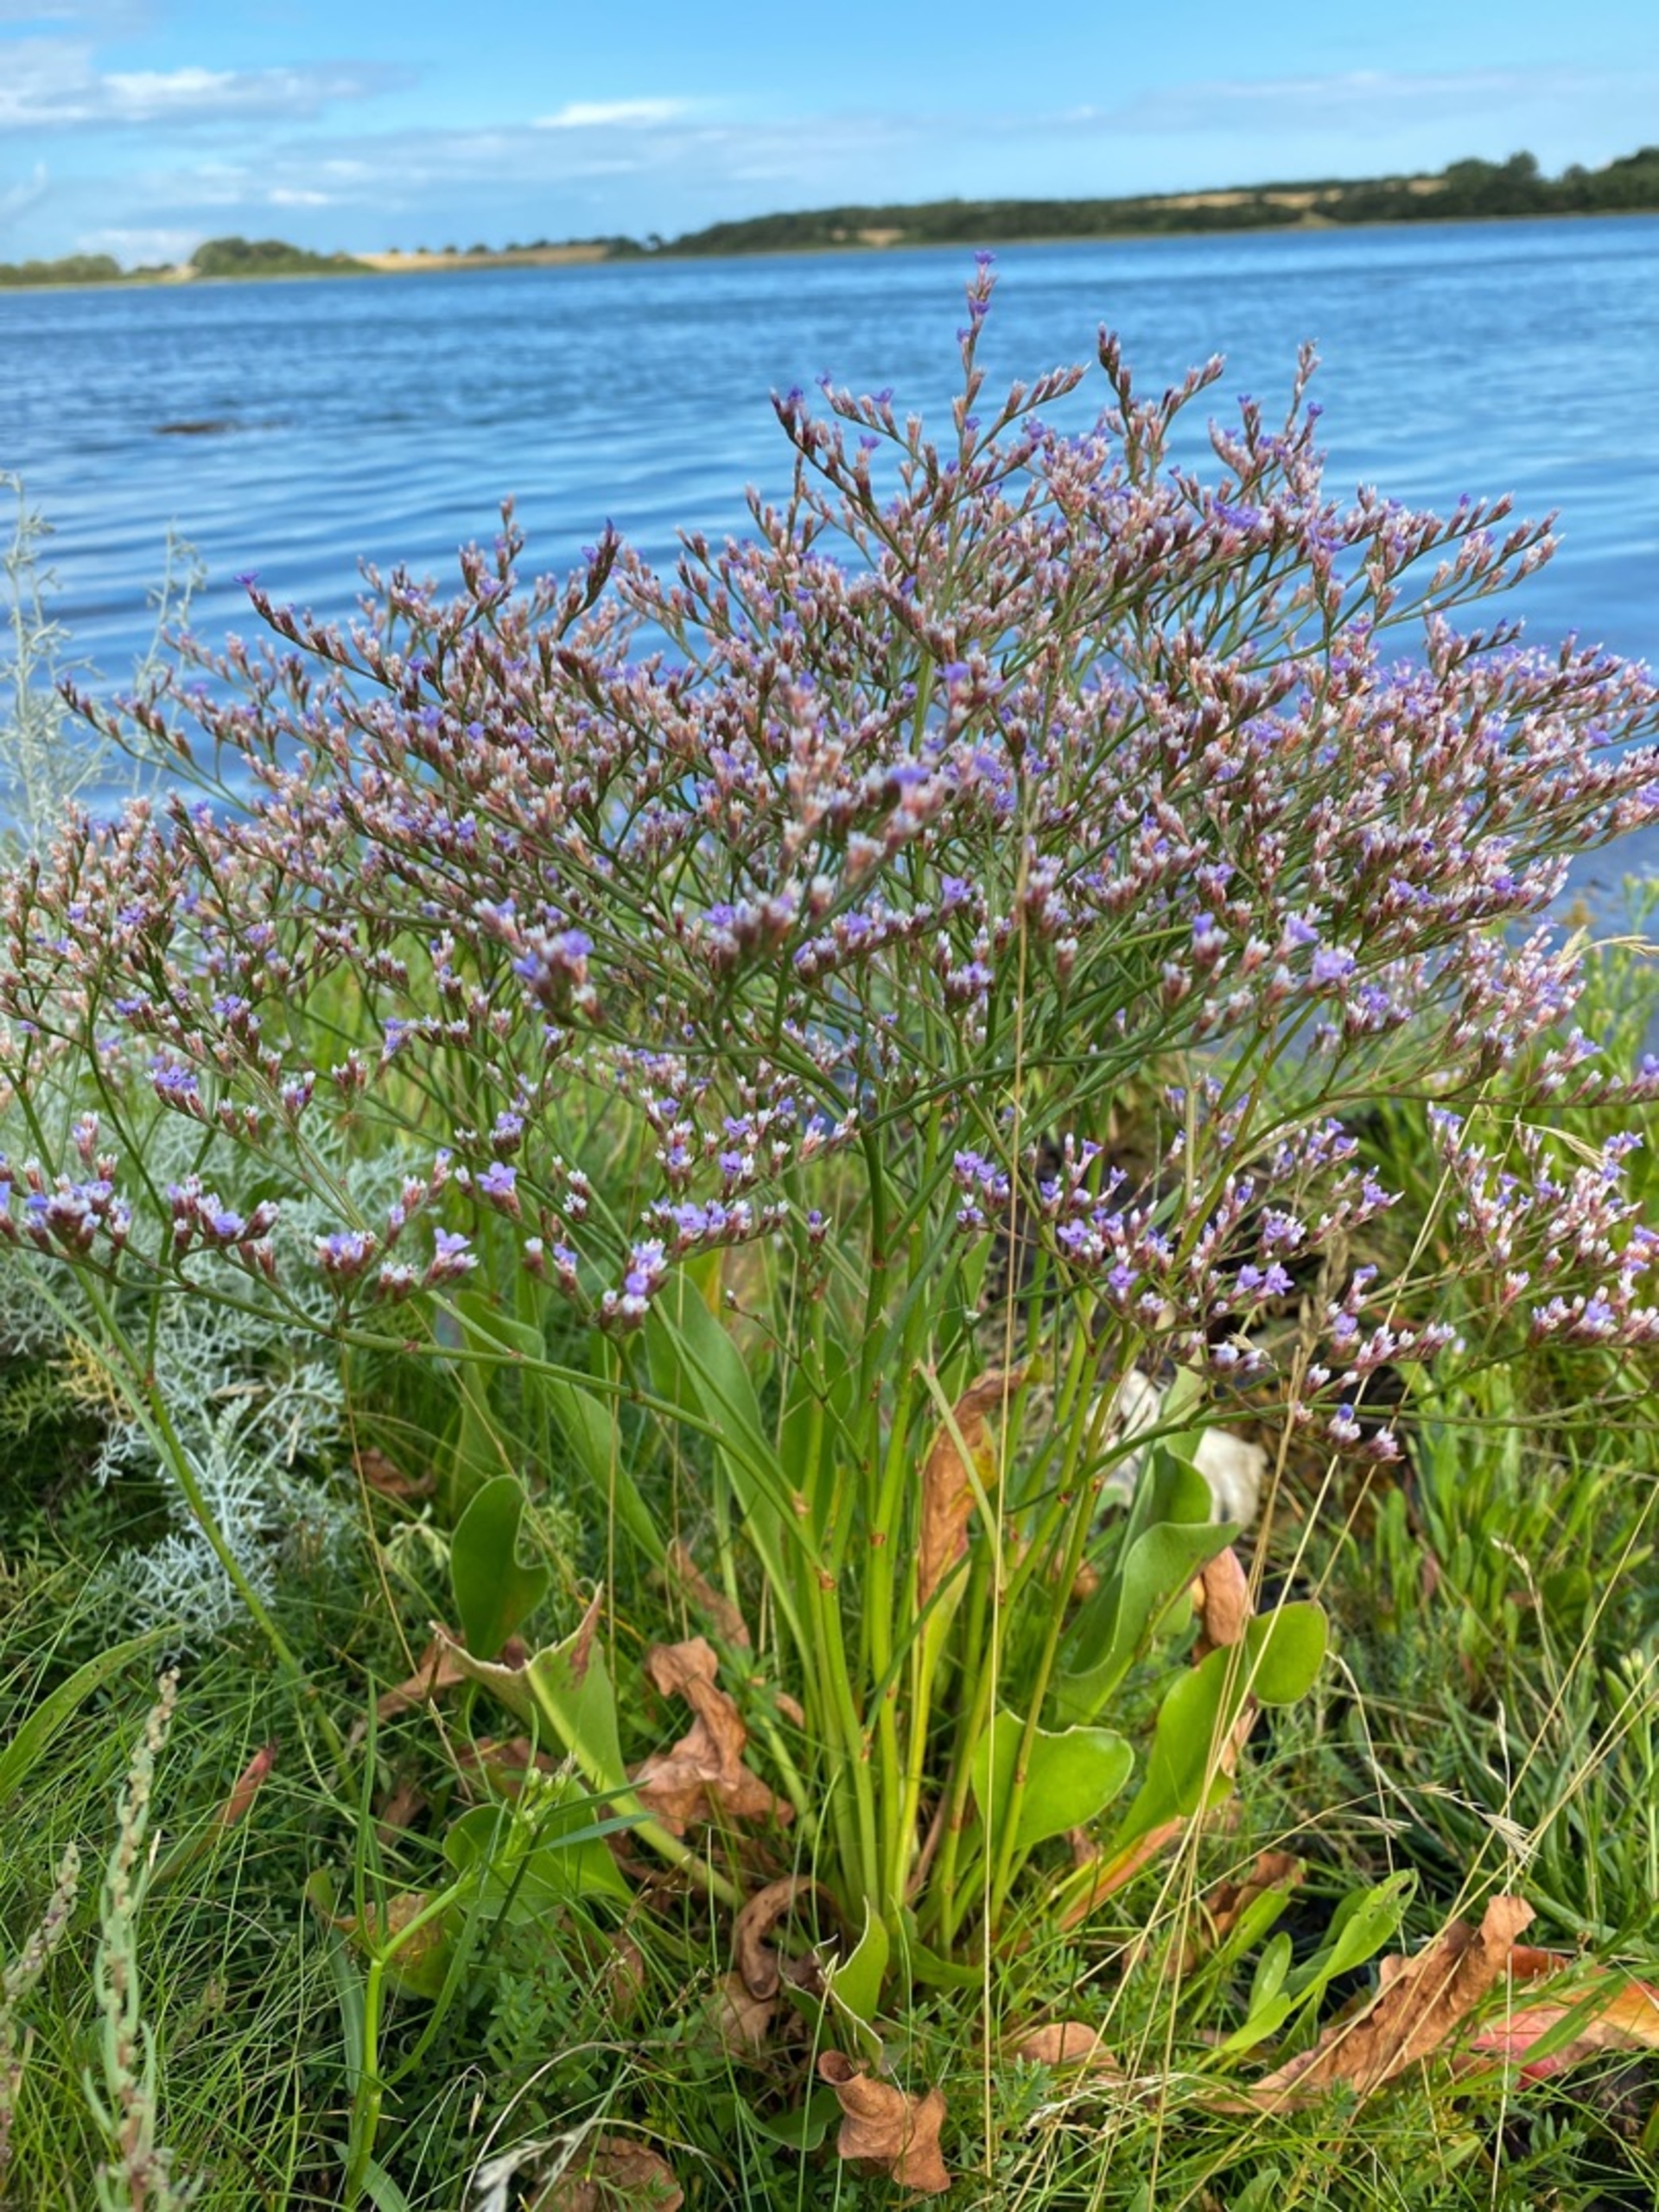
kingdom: Plantae
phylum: Tracheophyta
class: Magnoliopsida
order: Caryophyllales
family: Plumbaginaceae
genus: Limonium
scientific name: Limonium humile
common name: Lav hindebæger
